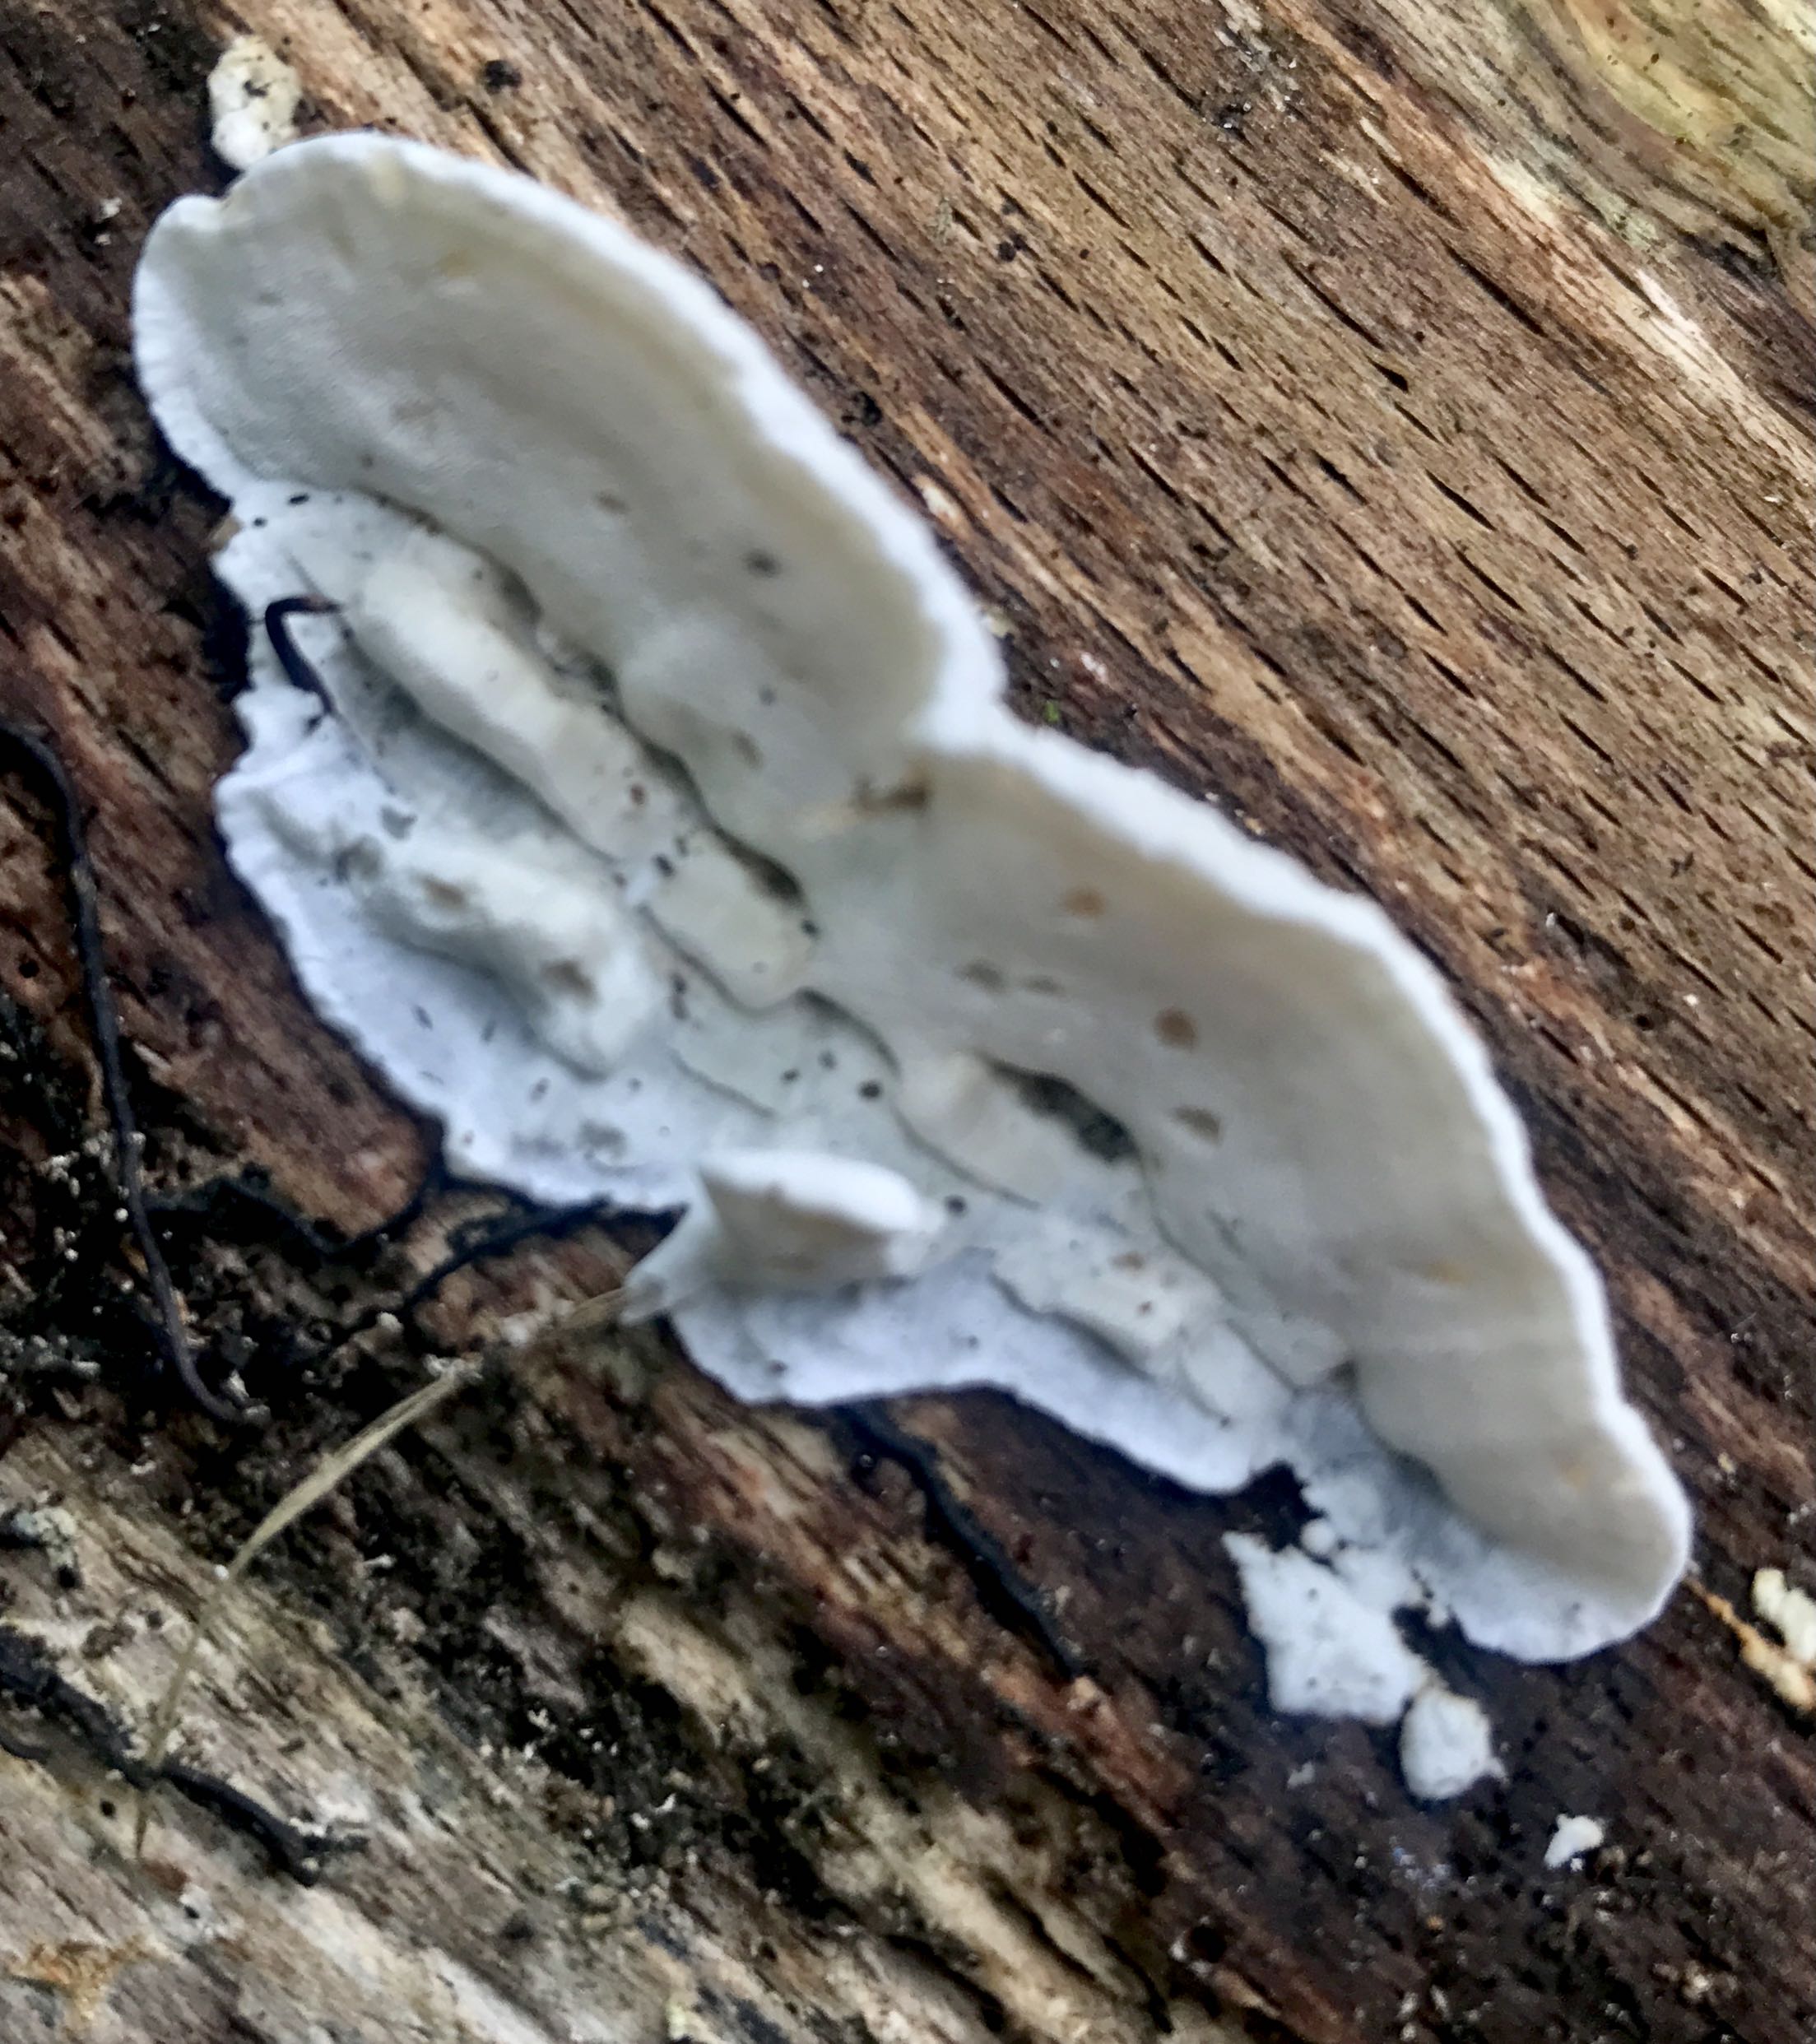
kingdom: Fungi
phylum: Basidiomycota
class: Agaricomycetes
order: Polyporales
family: Polyporaceae
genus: Cyanosporus
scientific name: Cyanosporus alni
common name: blegblå kødporesvamp
